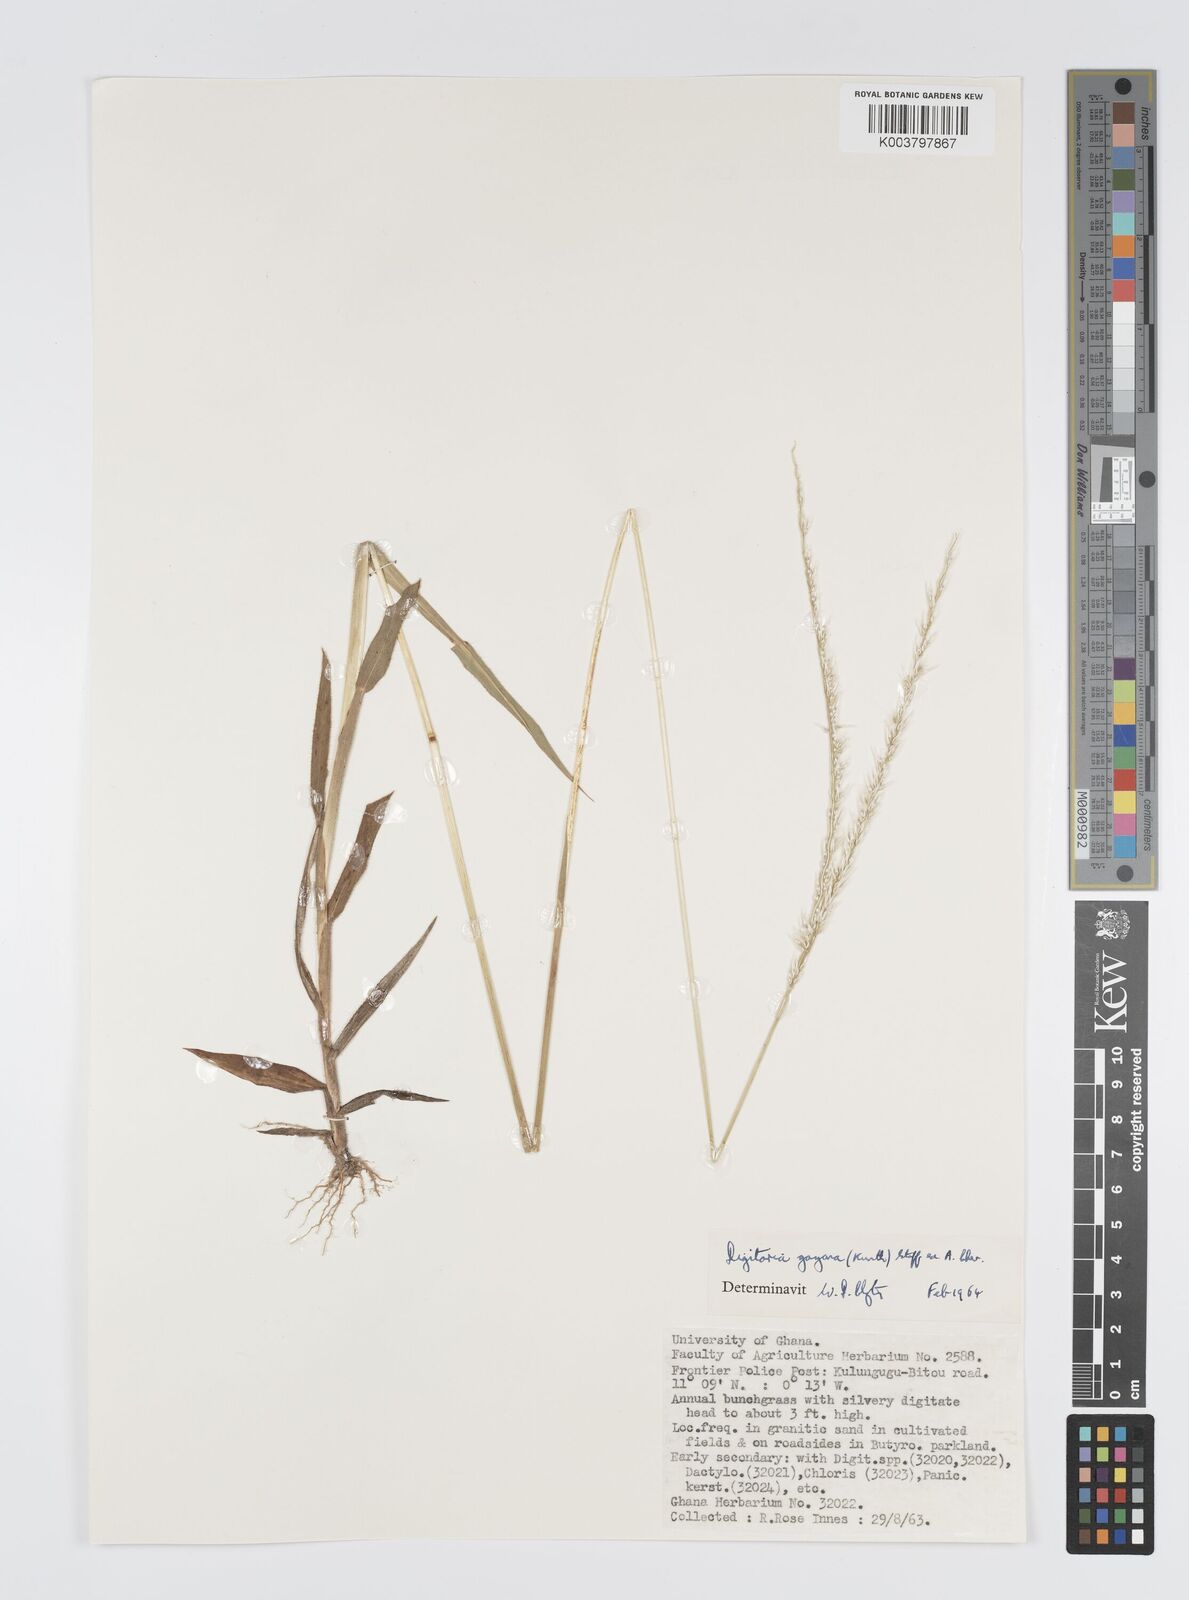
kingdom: Plantae
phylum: Tracheophyta
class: Liliopsida
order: Poales
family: Poaceae
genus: Digitaria
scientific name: Digitaria gayana
